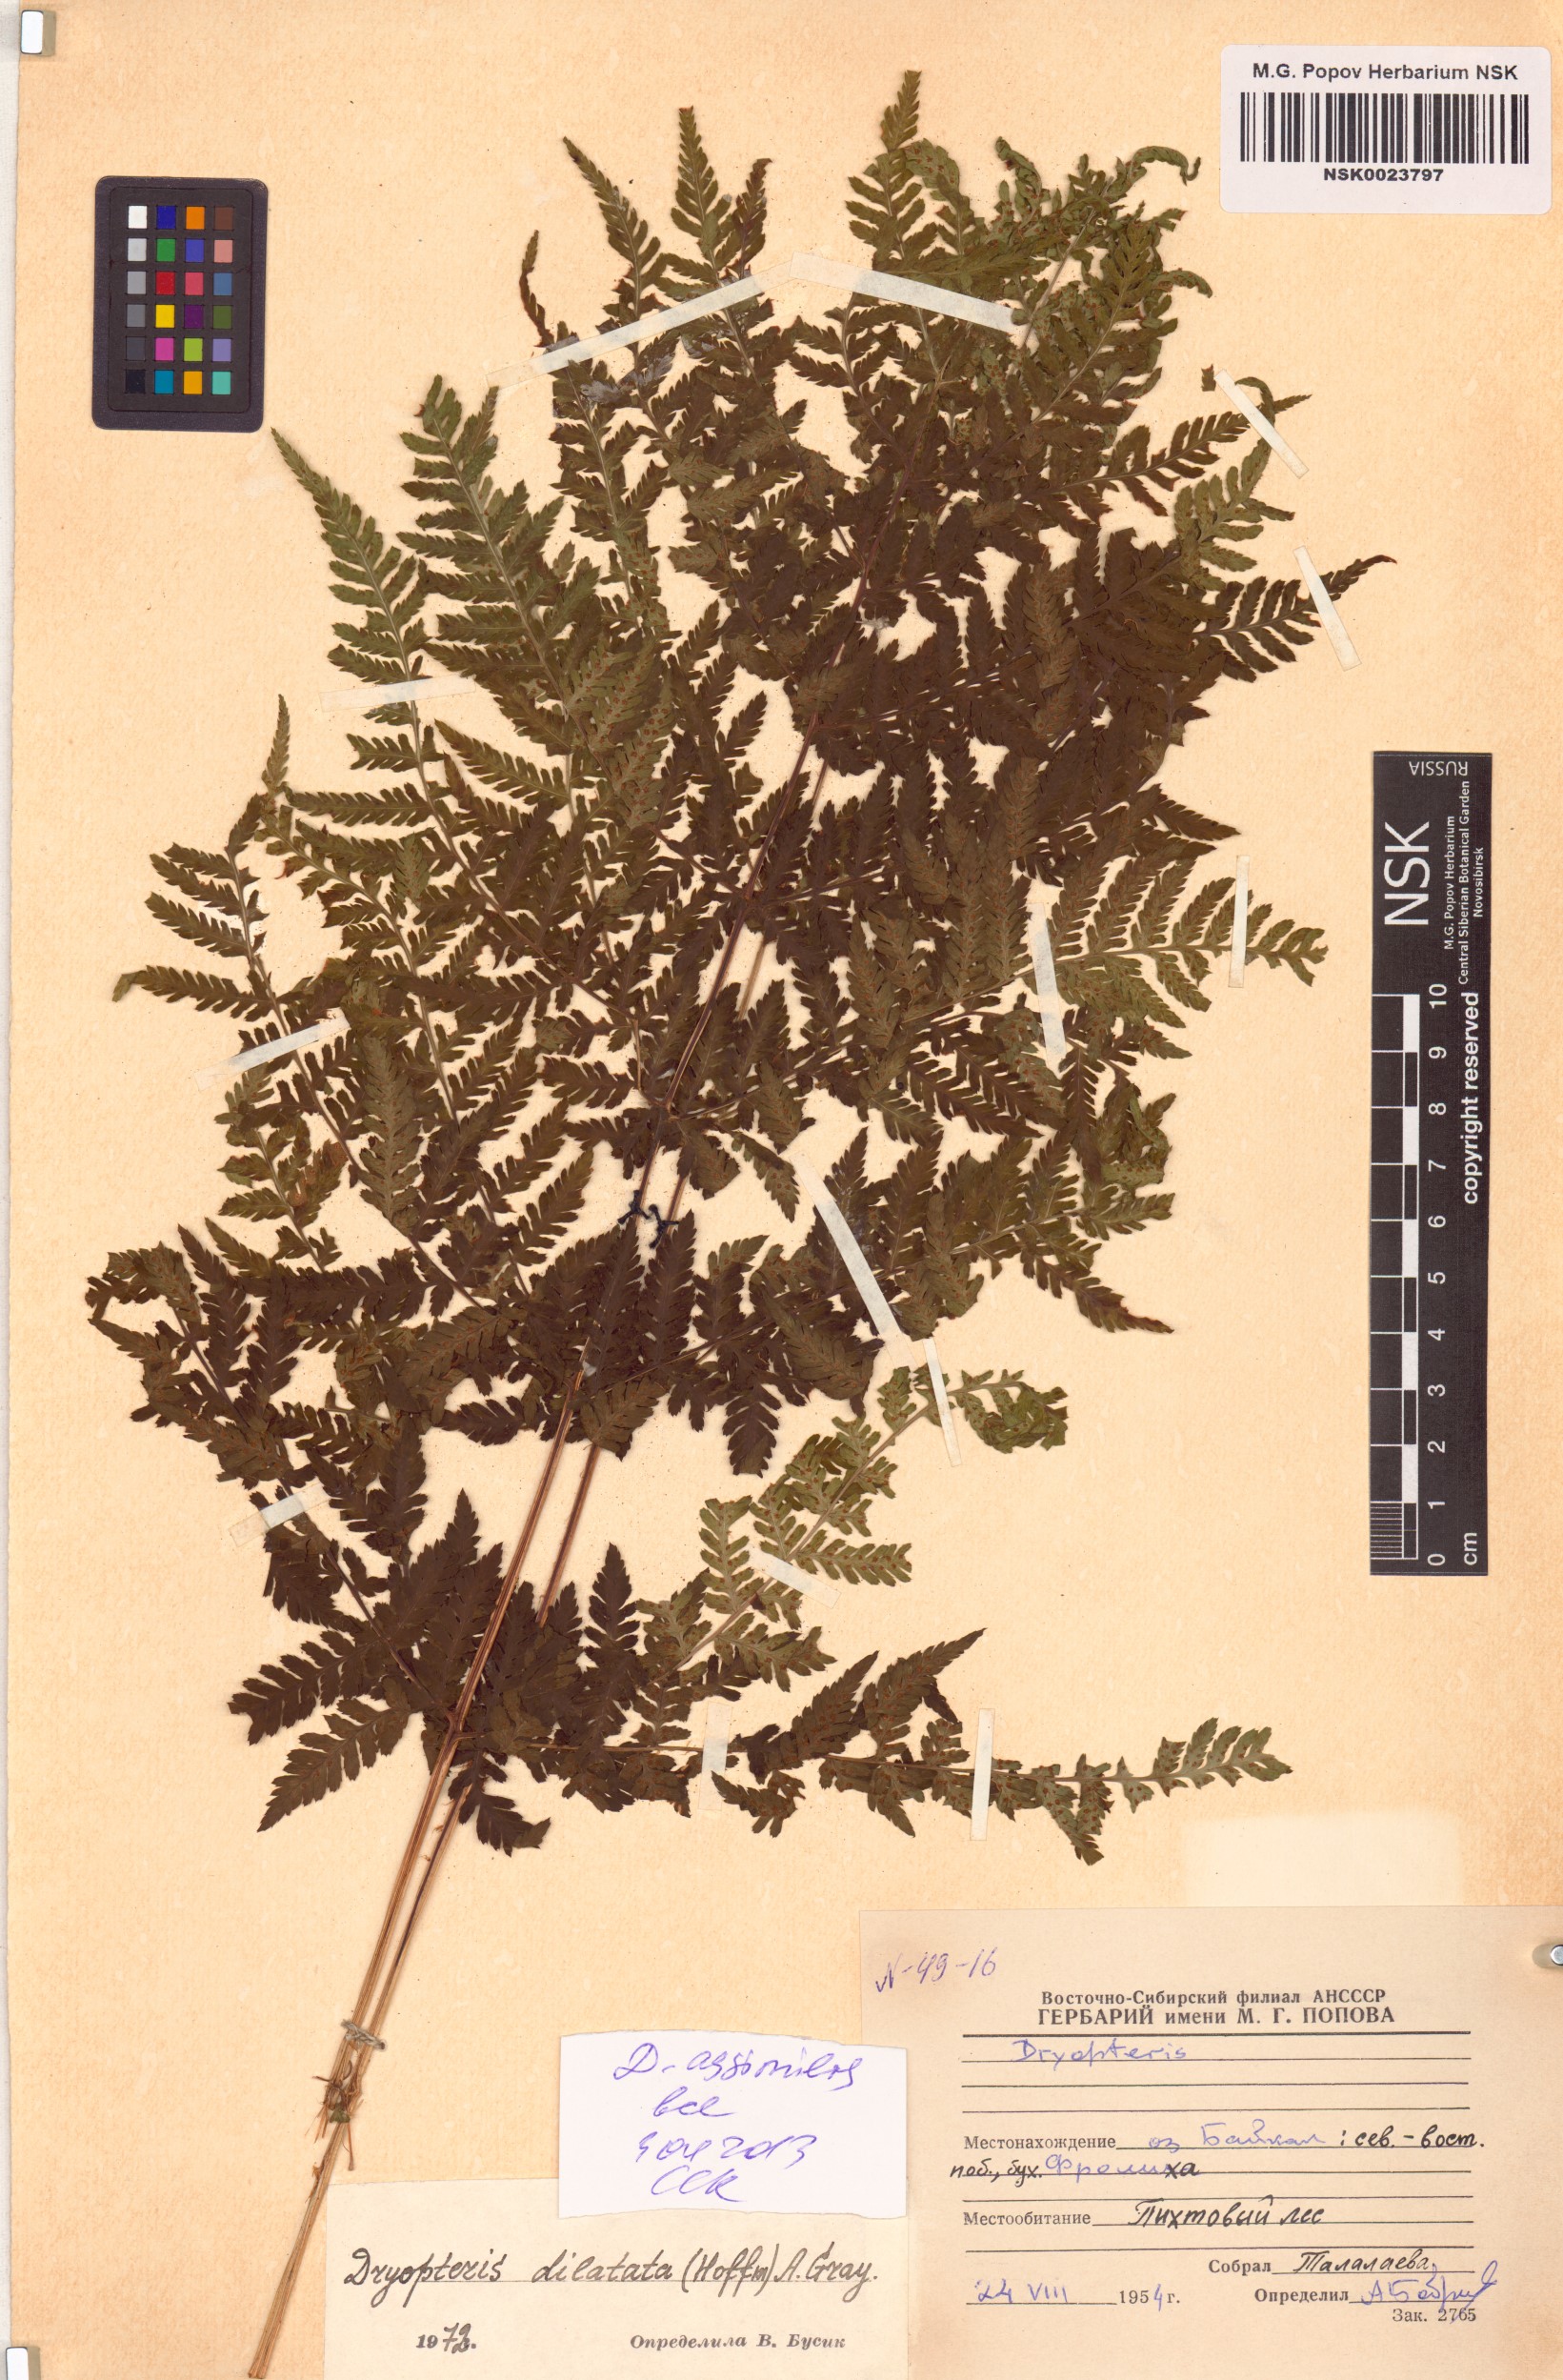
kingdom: Plantae
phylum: Tracheophyta
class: Polypodiopsida
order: Polypodiales
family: Dryopteridaceae
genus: Dryopteris
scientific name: Dryopteris expansa
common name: Northern buckler fern
